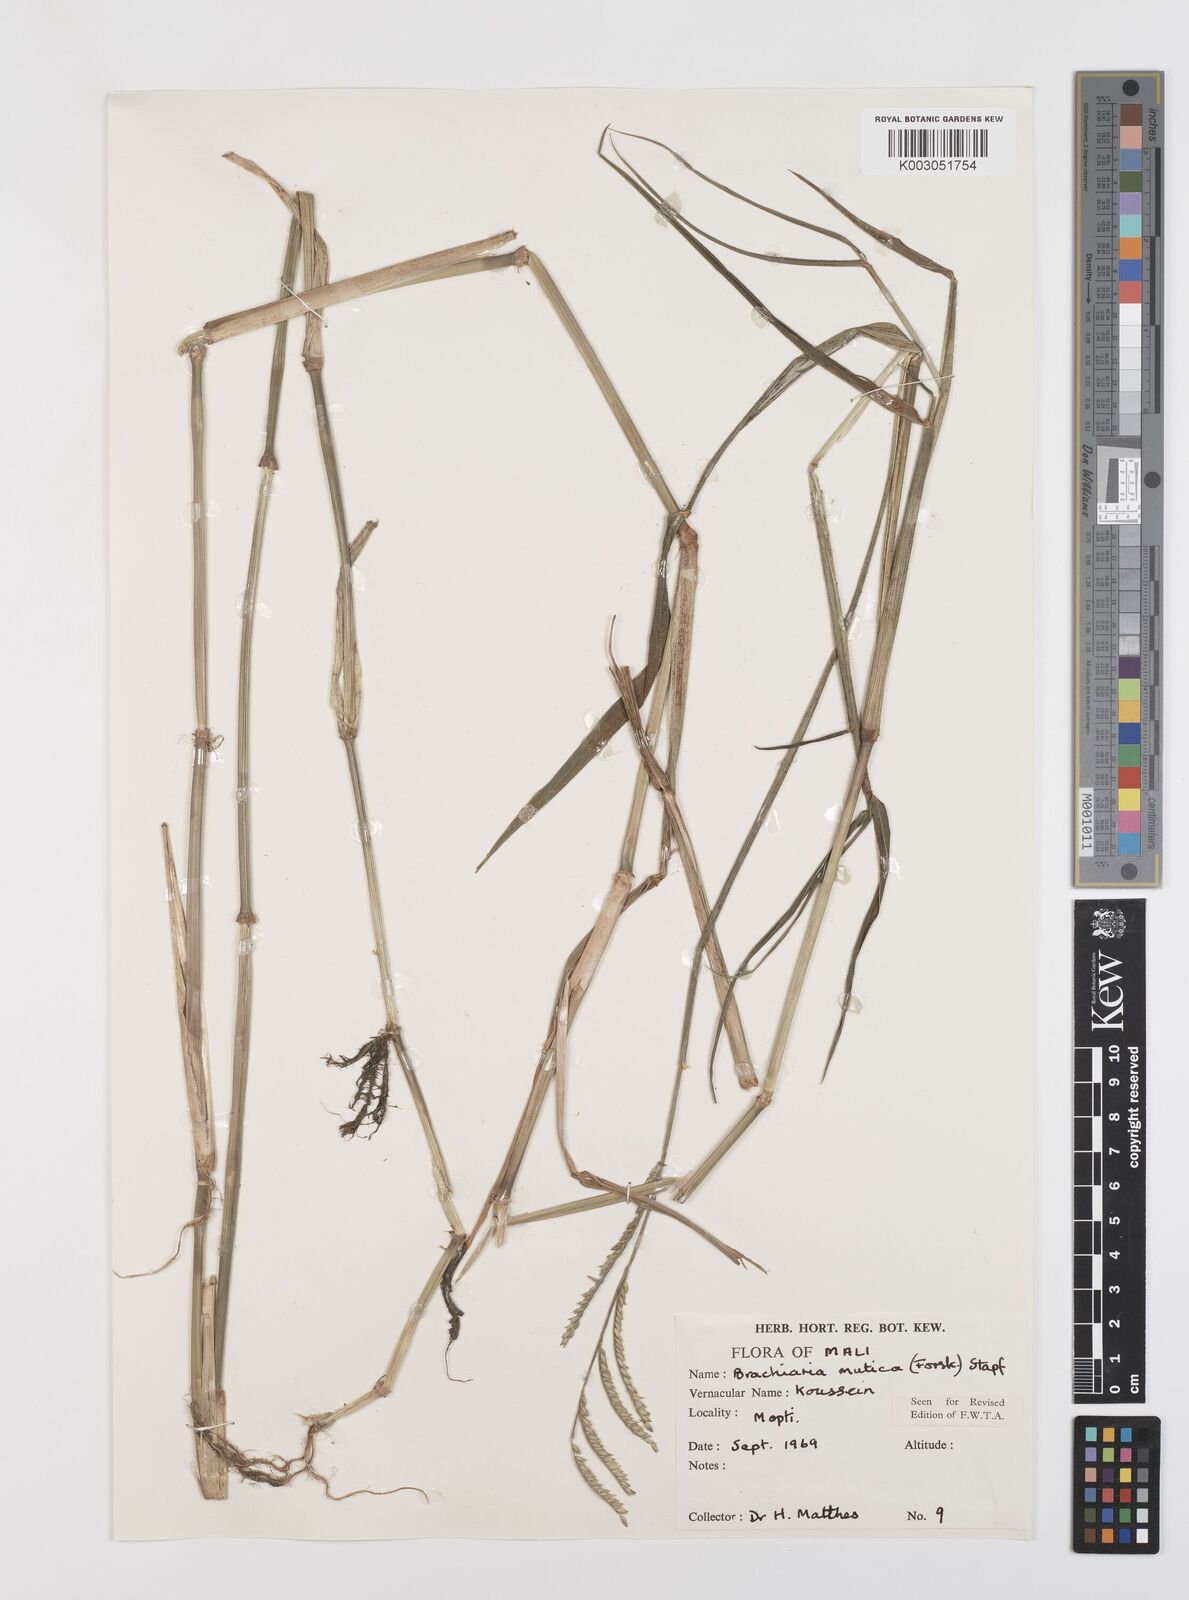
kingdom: Plantae
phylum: Tracheophyta
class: Liliopsida
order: Poales
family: Poaceae
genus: Urochloa
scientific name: Urochloa arrecta
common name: African signalgrass
